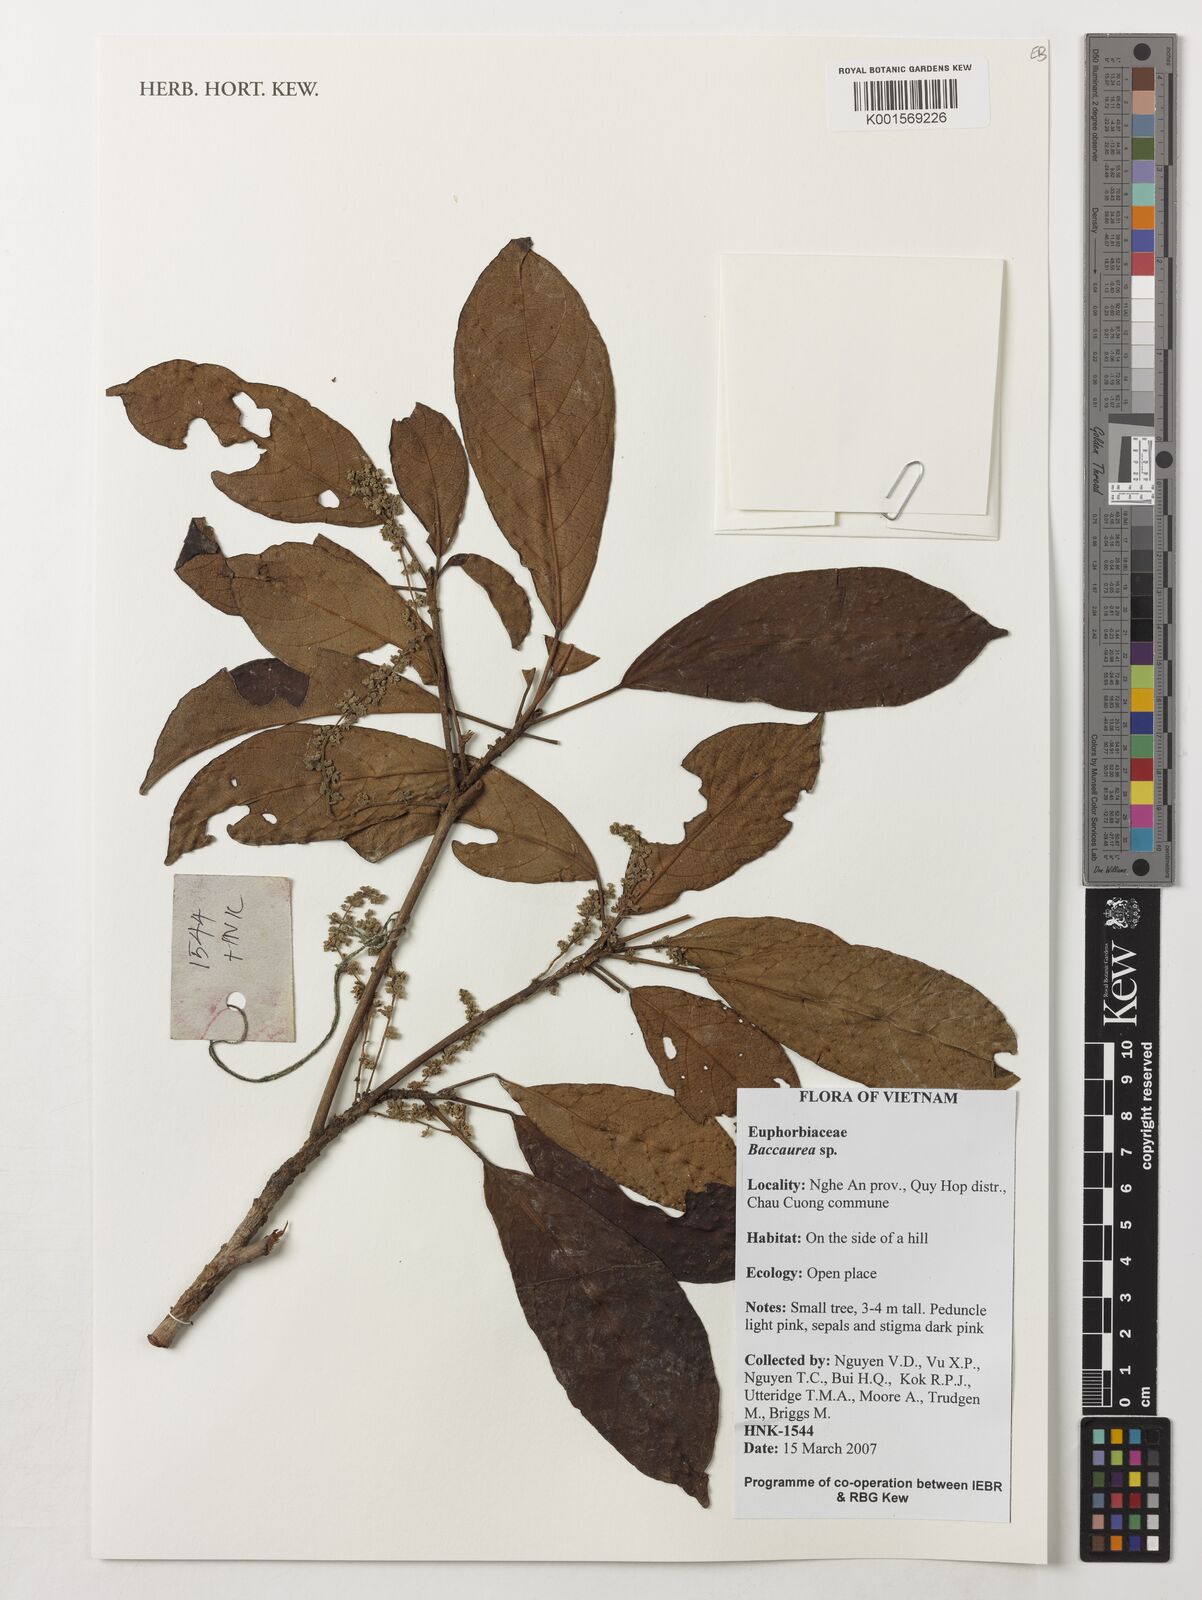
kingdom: Plantae
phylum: Tracheophyta
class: Magnoliopsida
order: Malpighiales
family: Phyllanthaceae
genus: Baccaurea
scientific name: Baccaurea
